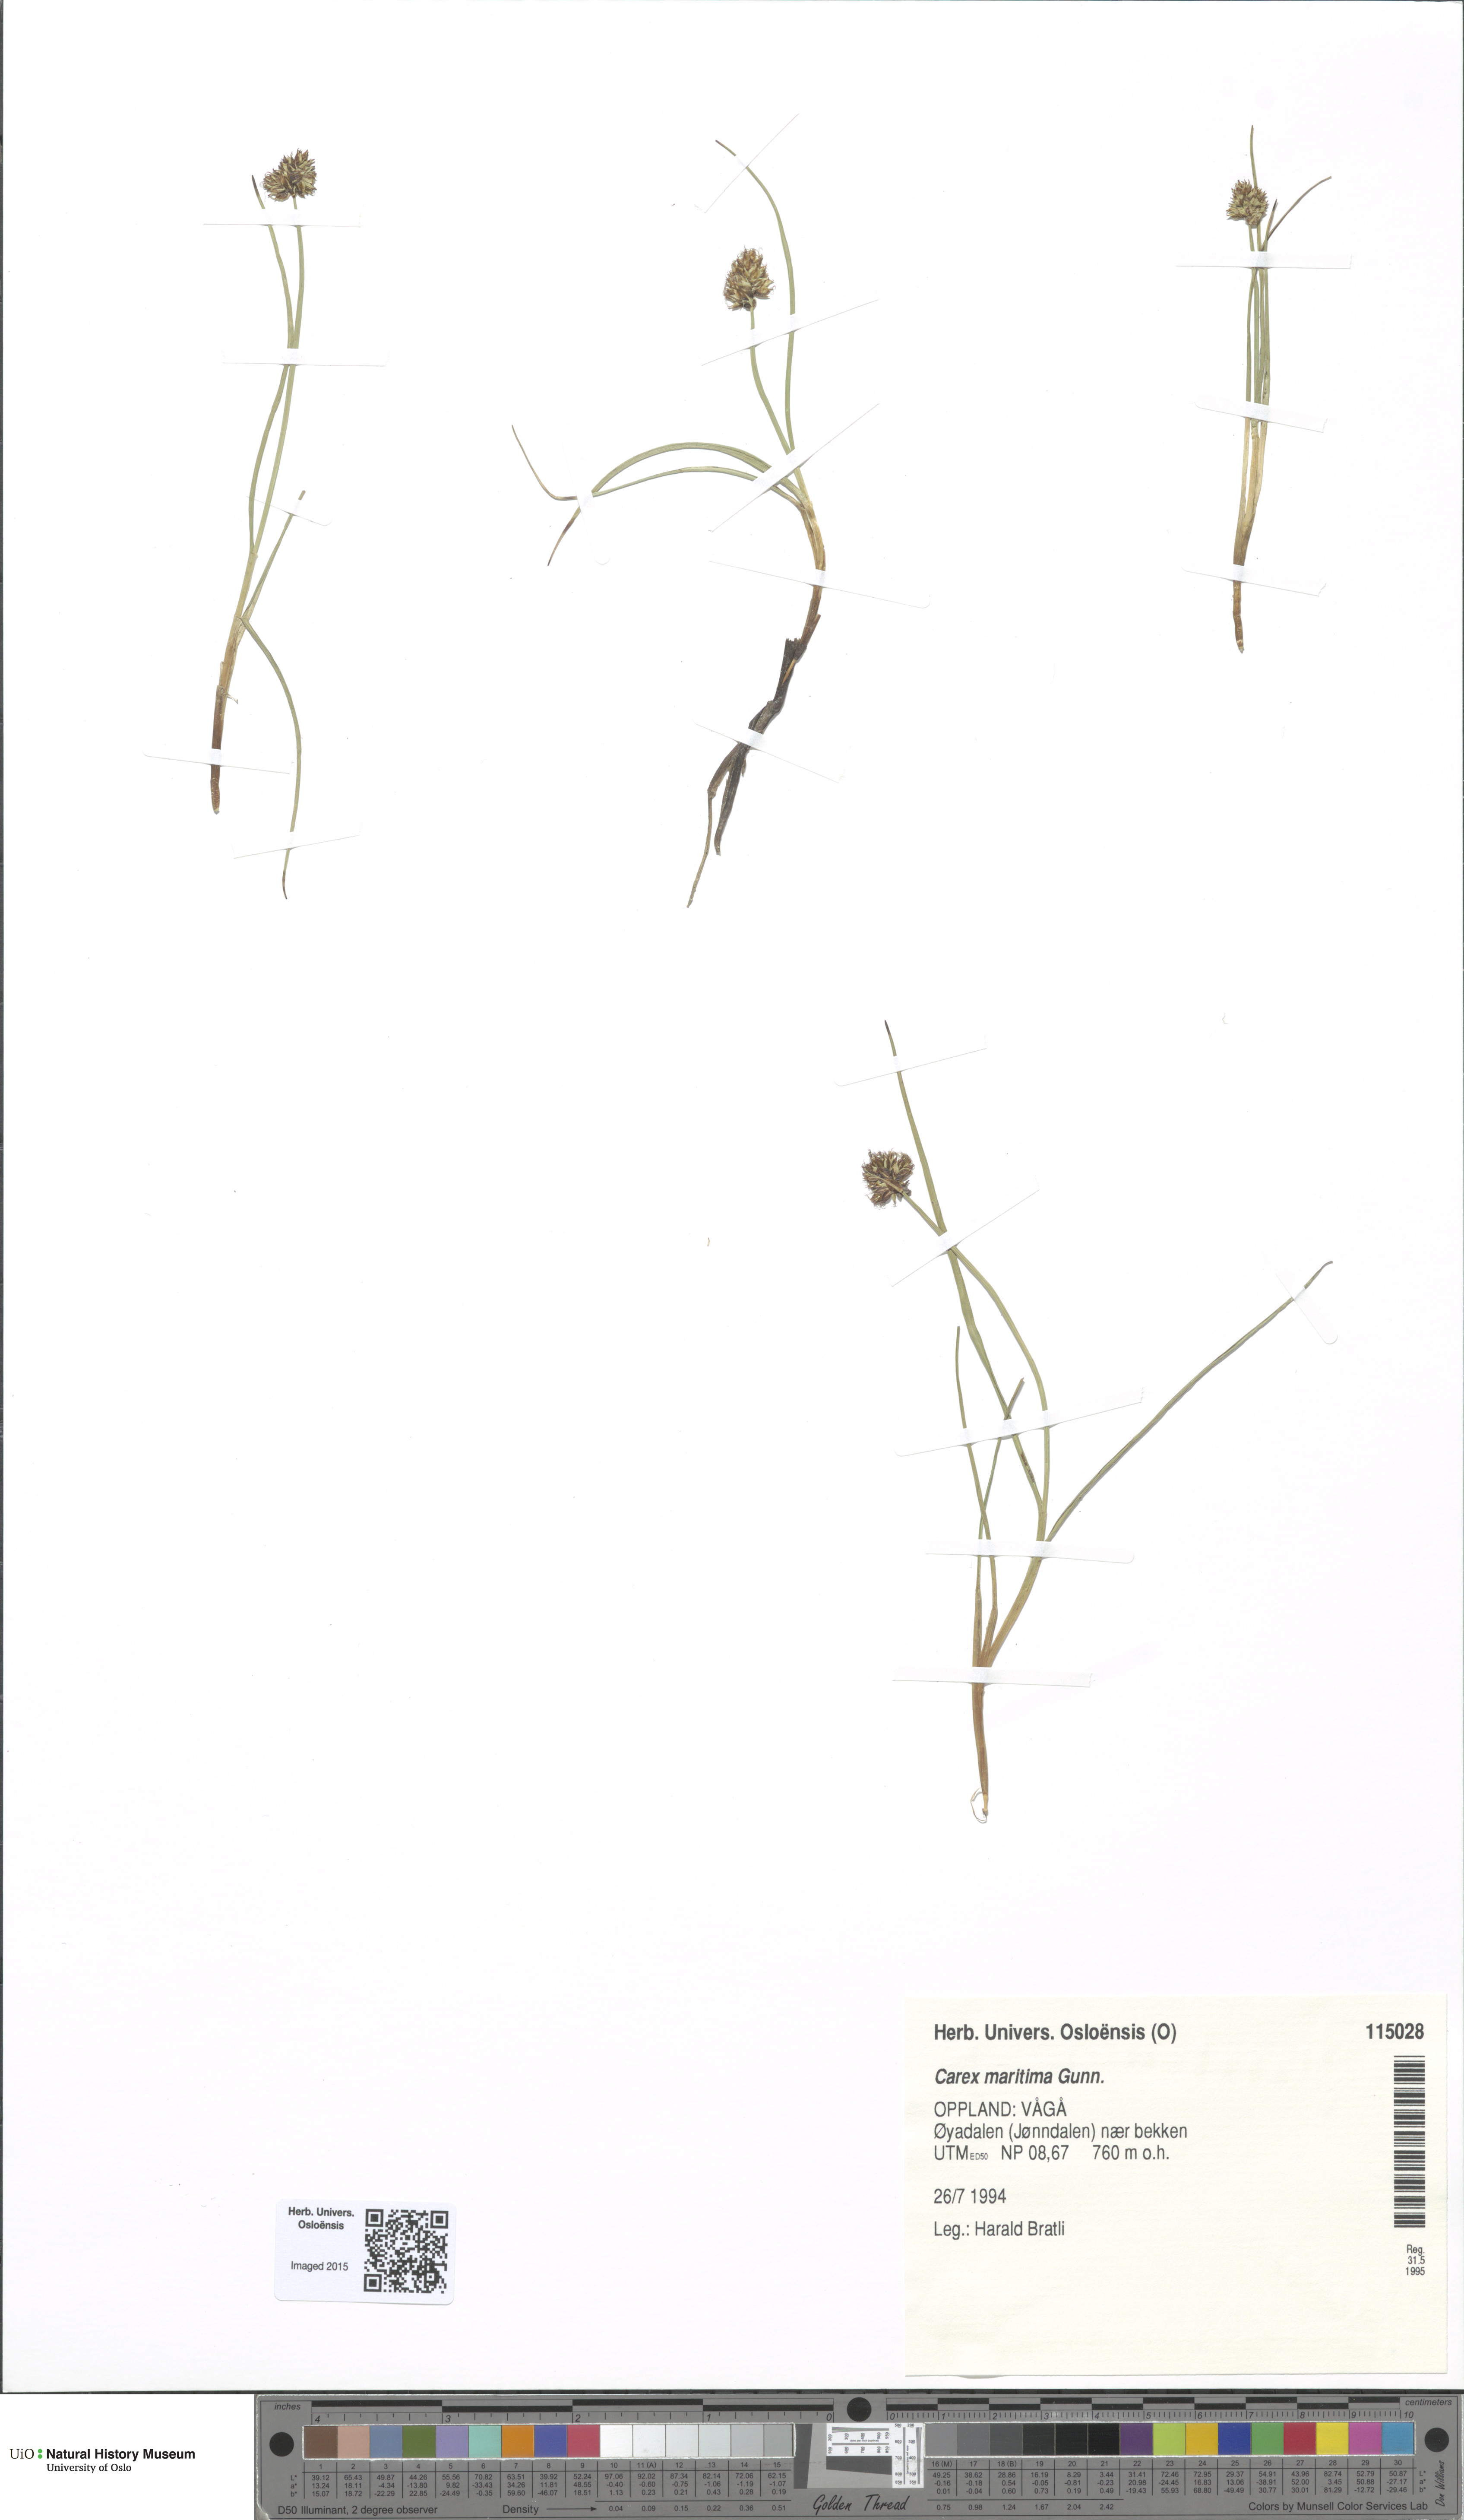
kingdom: Plantae
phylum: Tracheophyta
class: Liliopsida
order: Poales
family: Cyperaceae
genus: Carex
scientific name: Carex maritima
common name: Curved sedge
